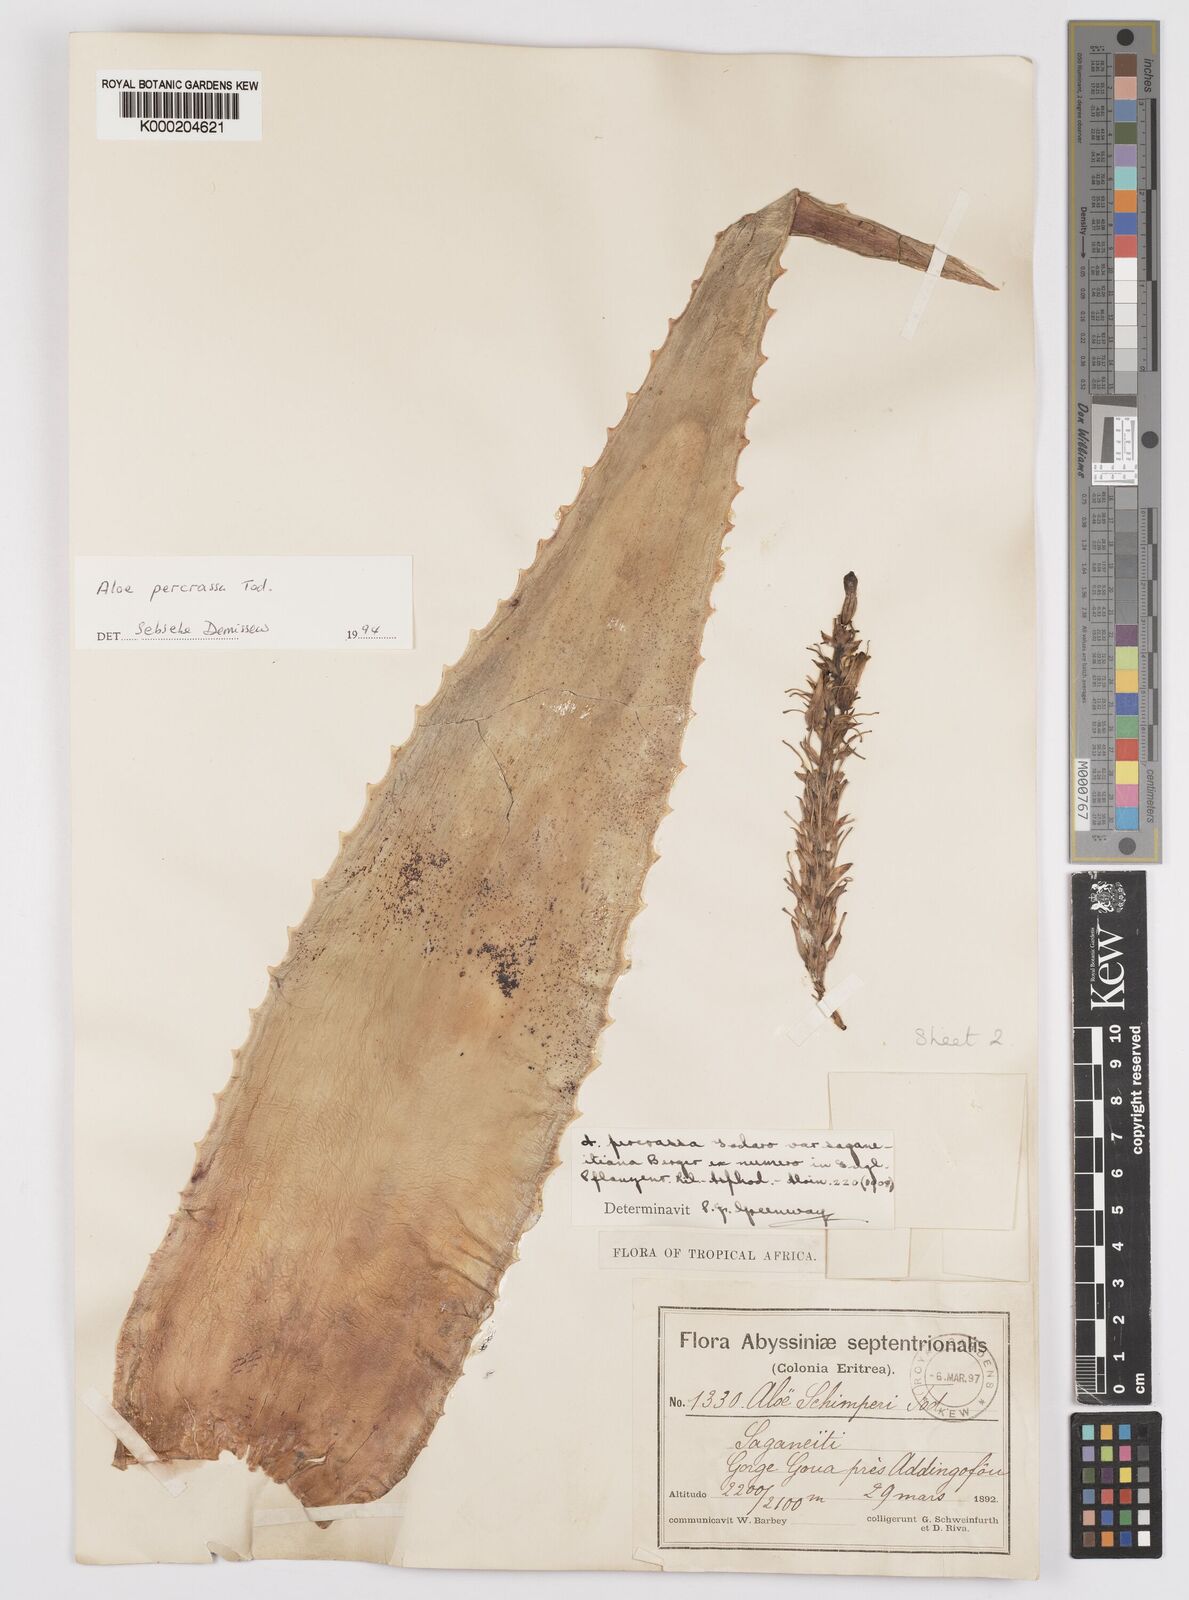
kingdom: Plantae
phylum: Tracheophyta
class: Liliopsida
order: Asparagales
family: Asphodelaceae
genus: Aloe
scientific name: Aloe percrassa
